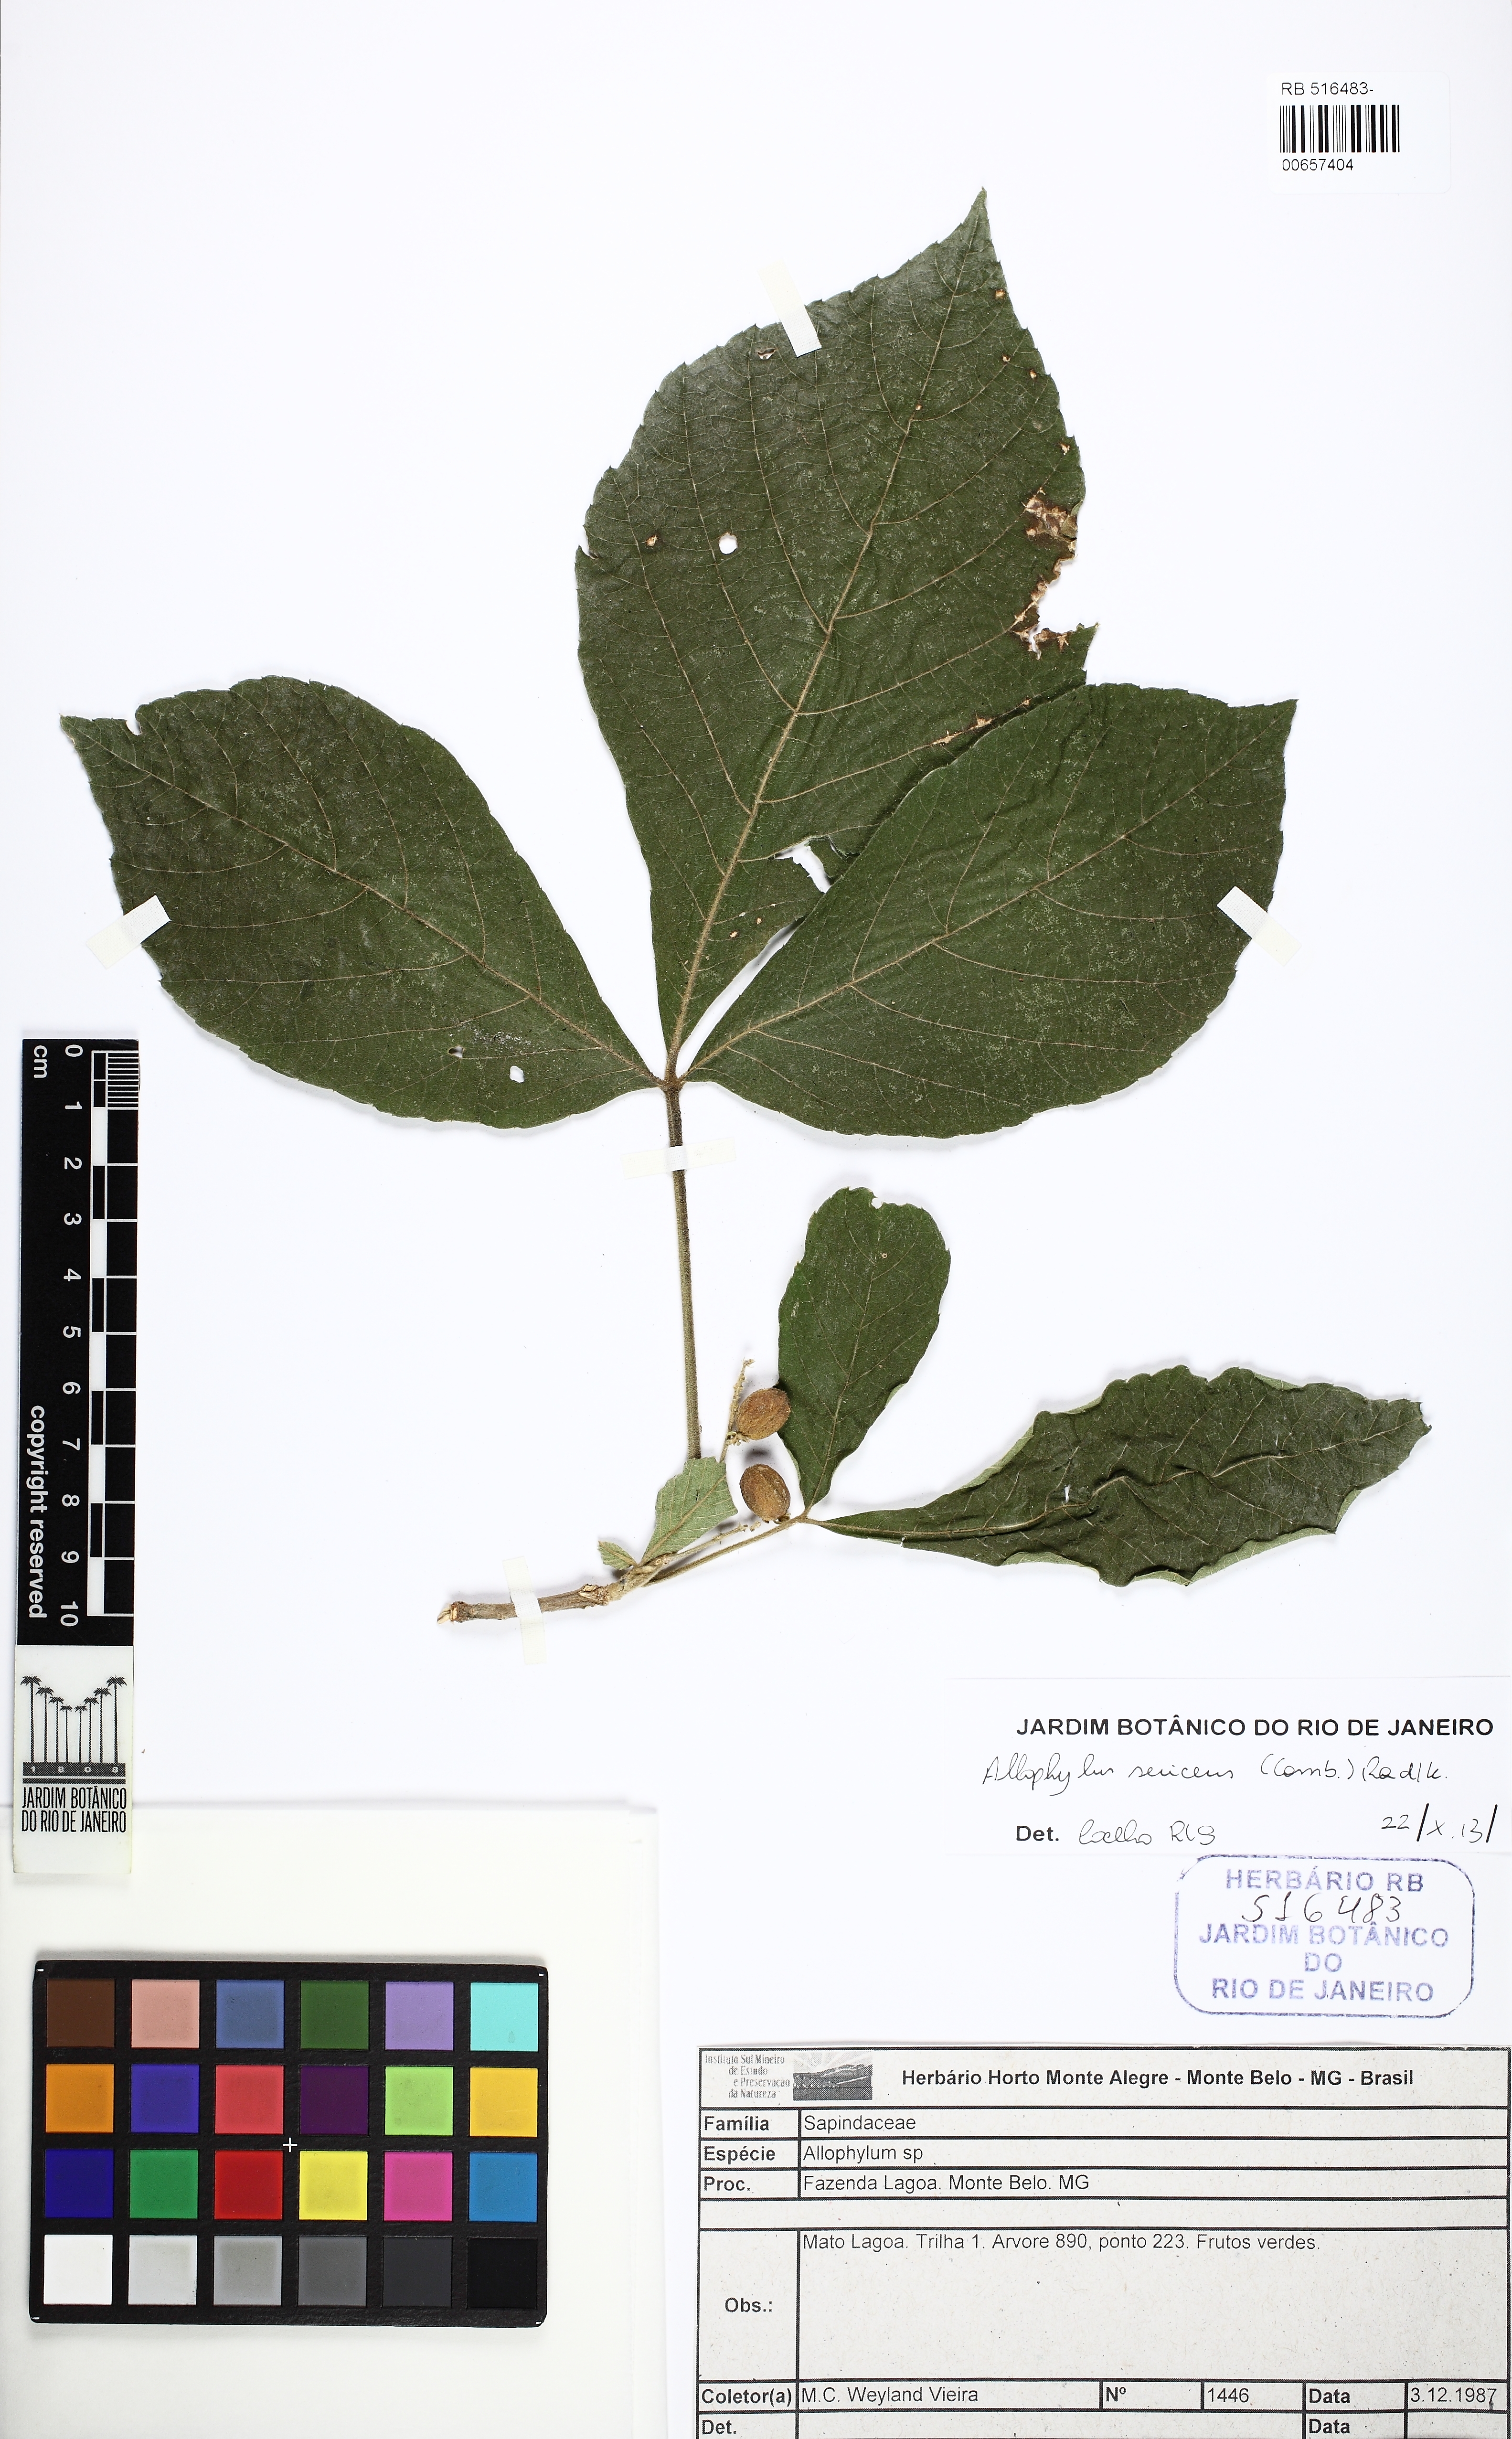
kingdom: Plantae
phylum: Tracheophyta
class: Magnoliopsida
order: Sapindales
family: Sapindaceae
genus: Allophylus
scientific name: Allophylus sericeus
